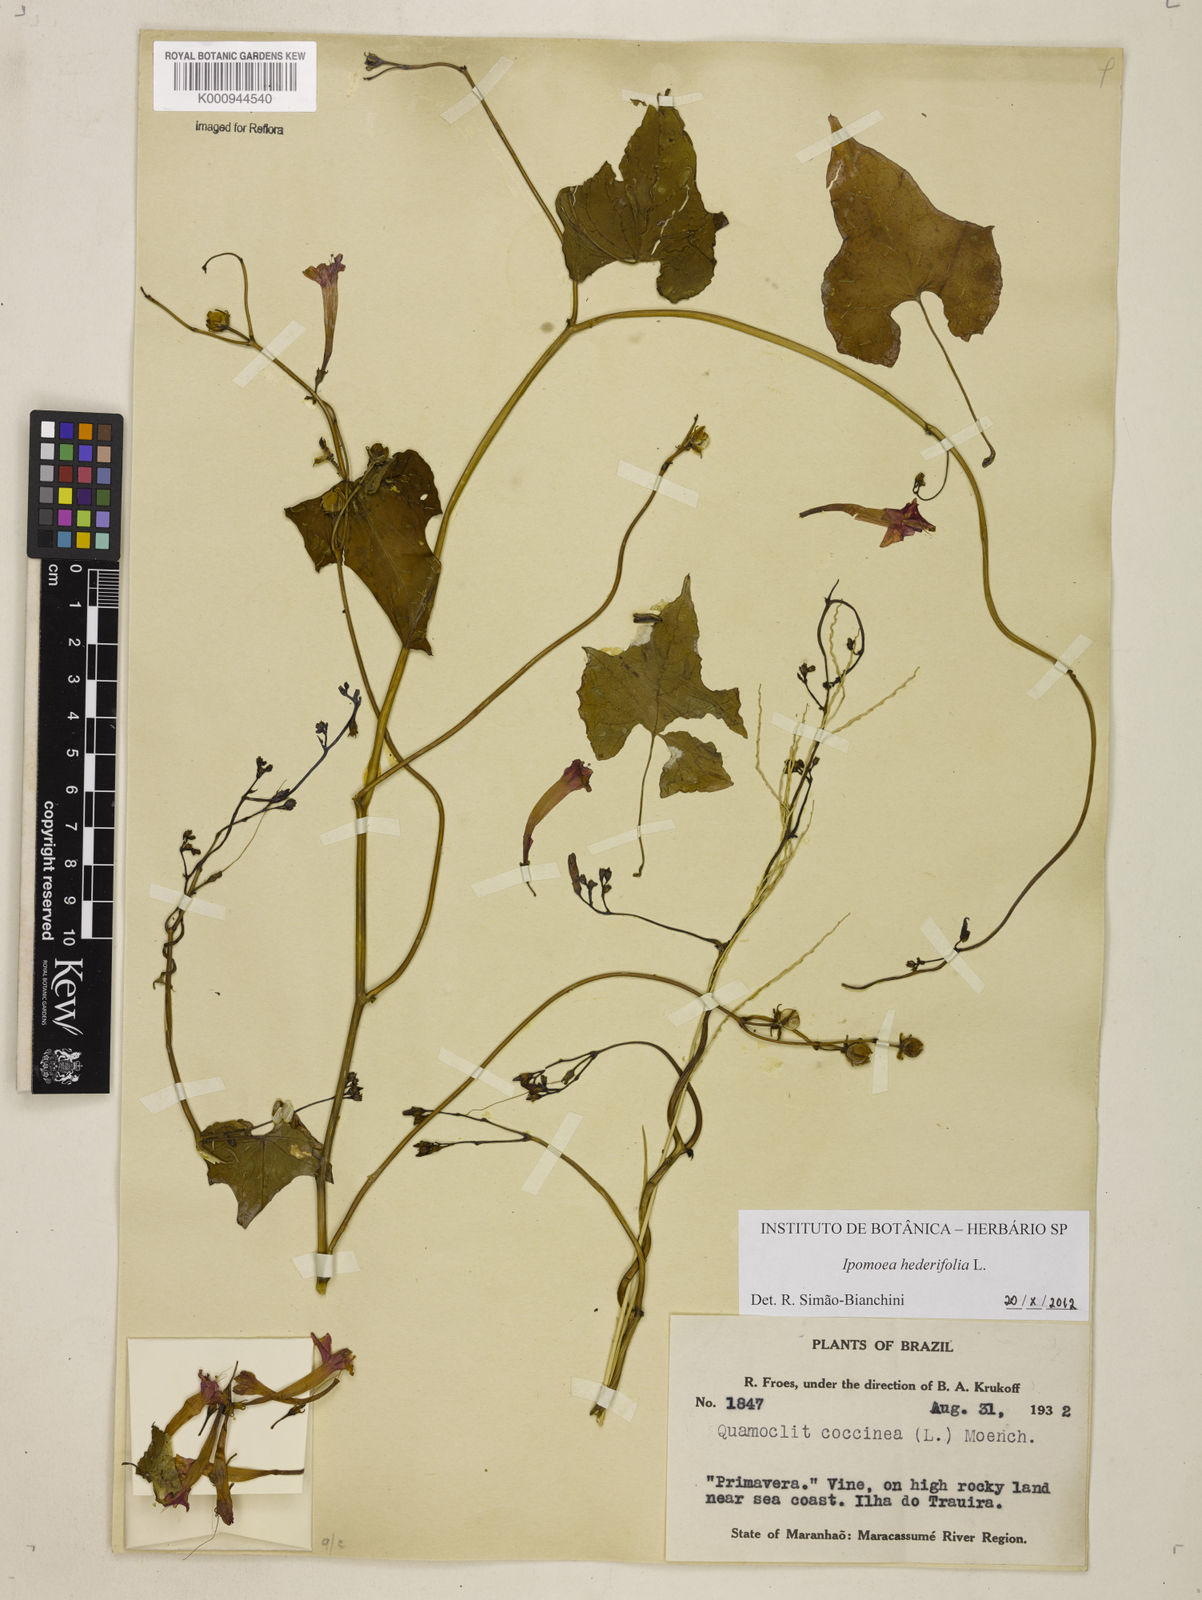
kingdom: Plantae
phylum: Tracheophyta
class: Magnoliopsida
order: Solanales
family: Convolvulaceae
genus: Ipomoea
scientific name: Ipomoea hederifolia
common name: Ivy-leaf morning-glory
